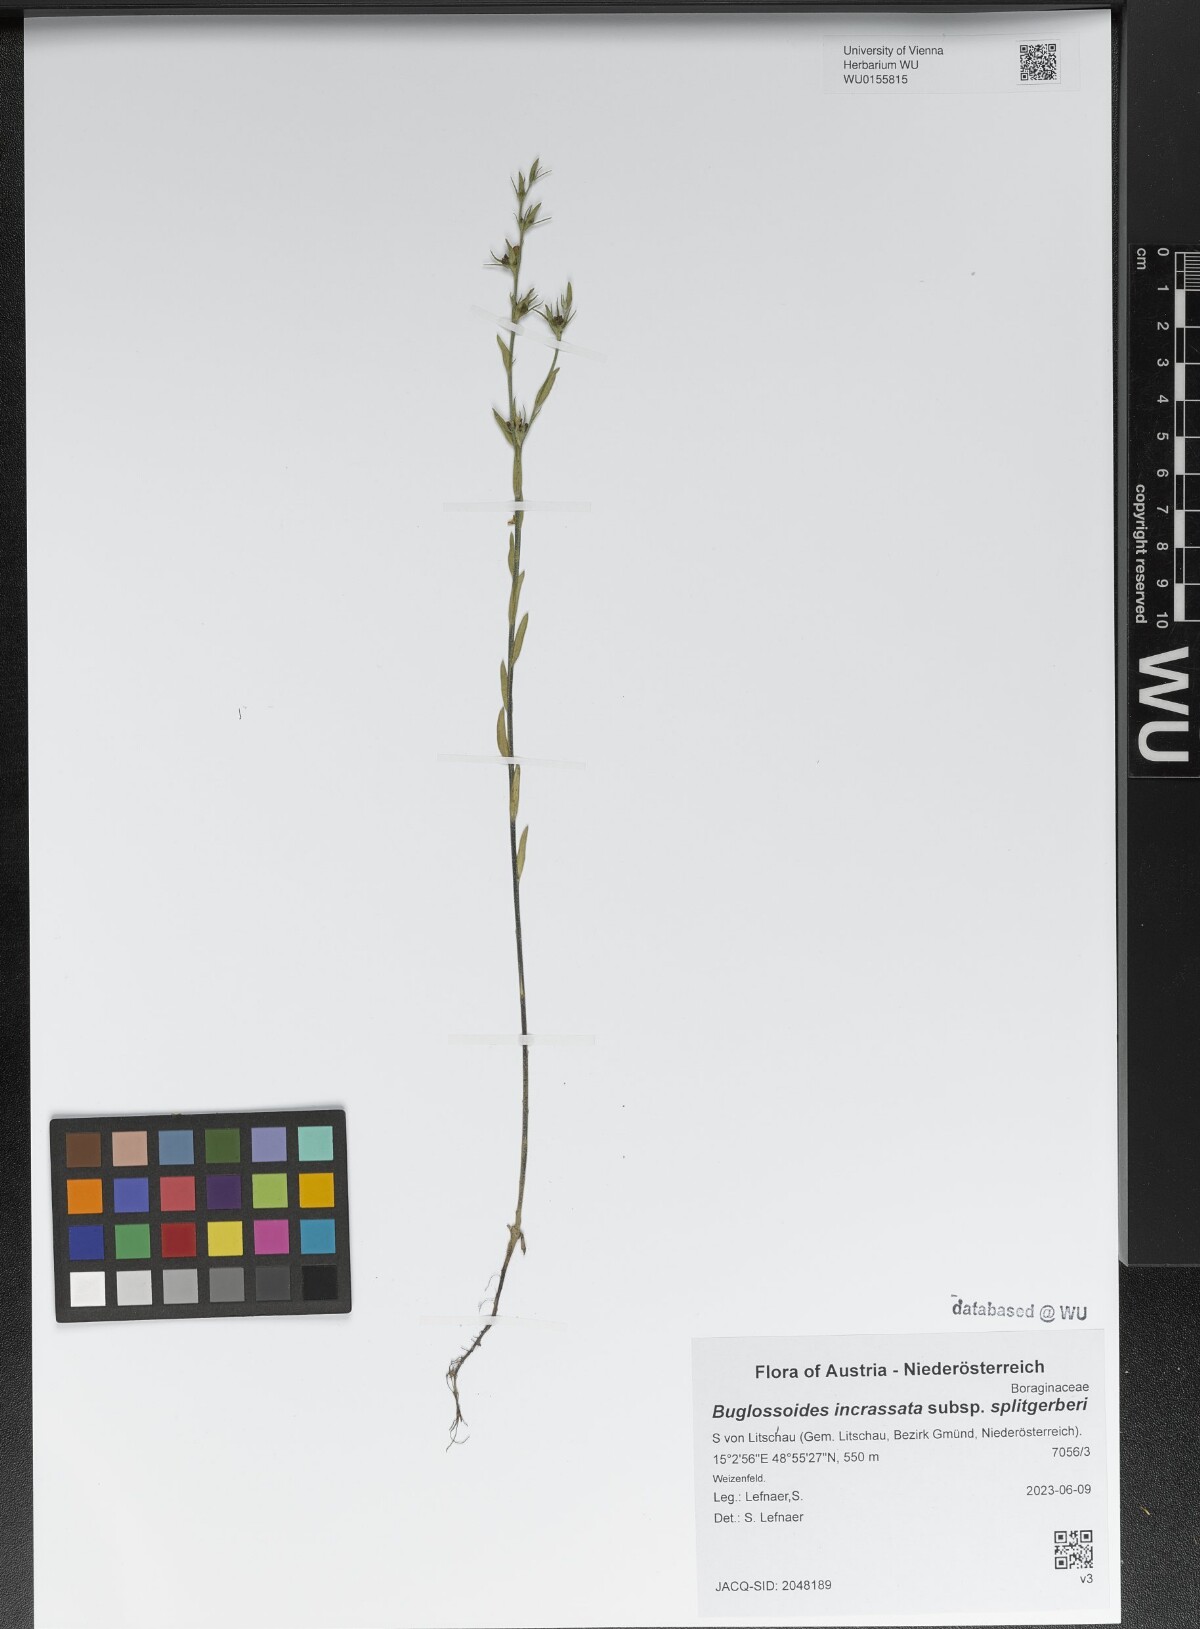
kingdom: Plantae
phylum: Tracheophyta
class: Magnoliopsida
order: Boraginales
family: Boraginaceae
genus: Buglossoides
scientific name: Buglossoides incrassata
